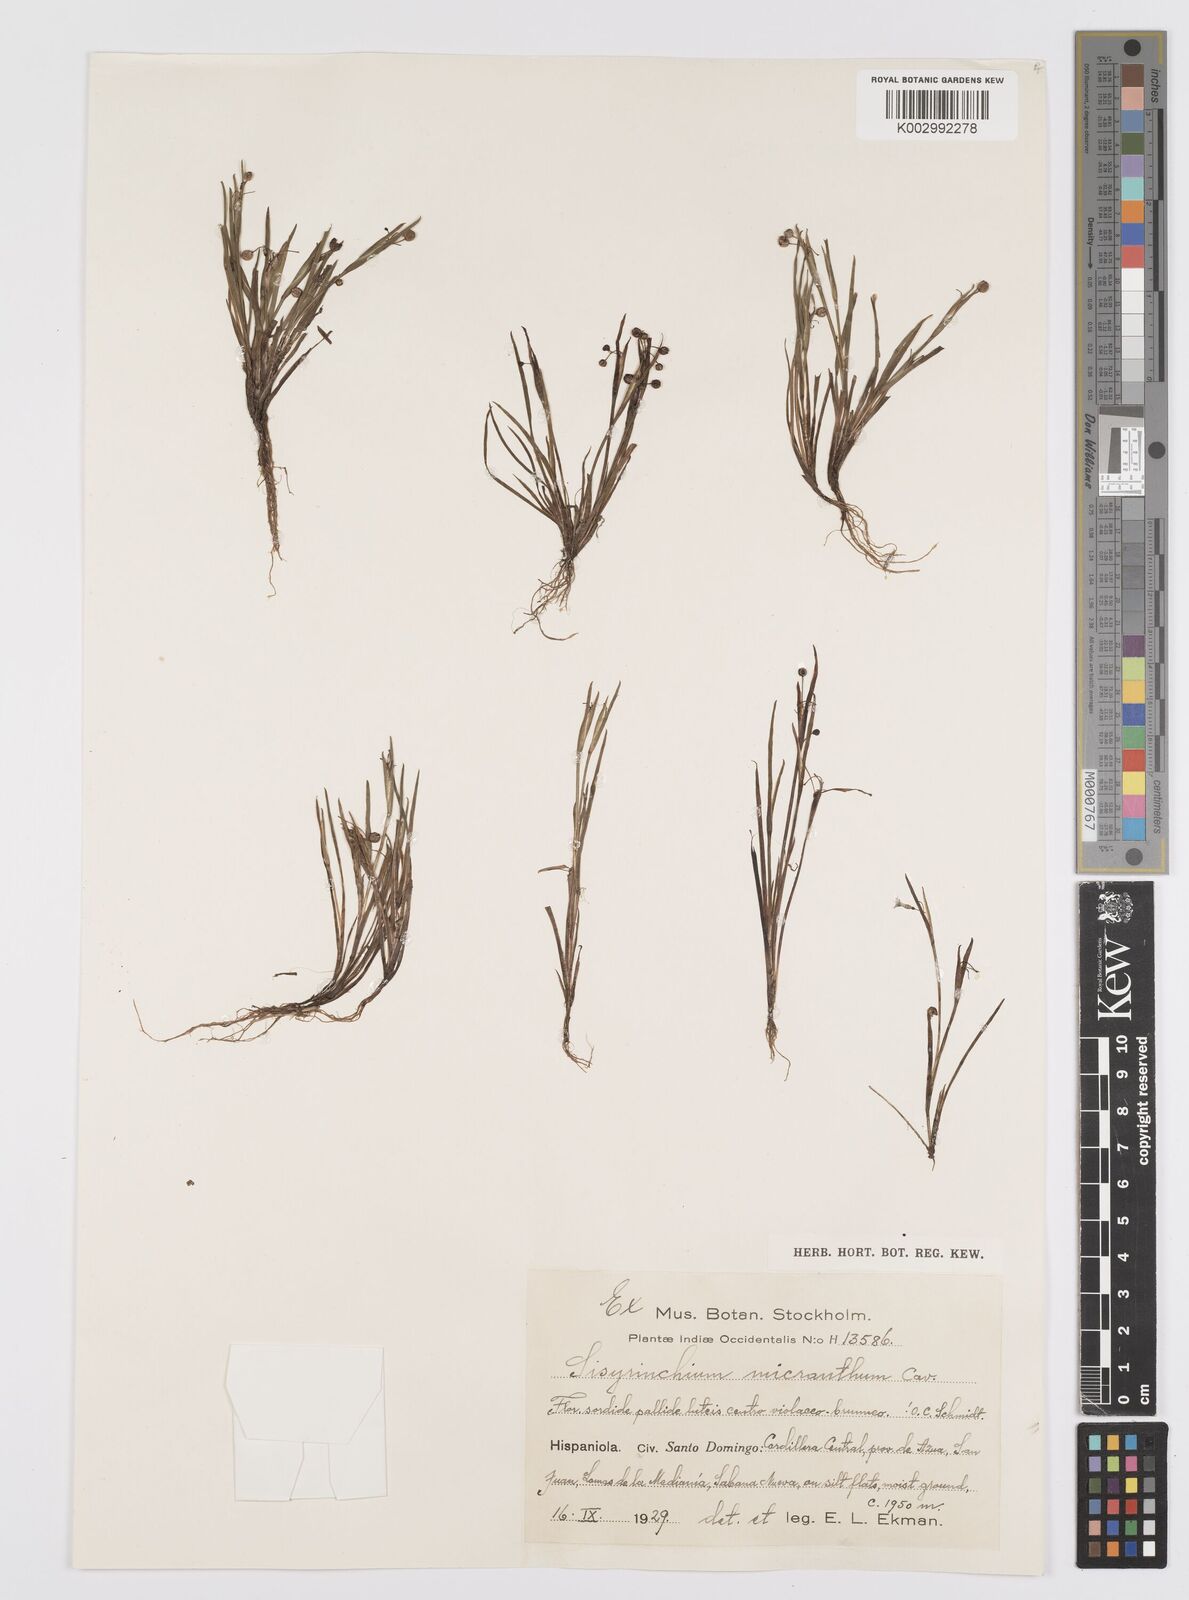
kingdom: Plantae
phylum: Tracheophyta
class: Liliopsida
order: Asparagales
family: Iridaceae
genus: Sisyrinchium
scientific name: Sisyrinchium micranthum
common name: Bermuda pigroot
